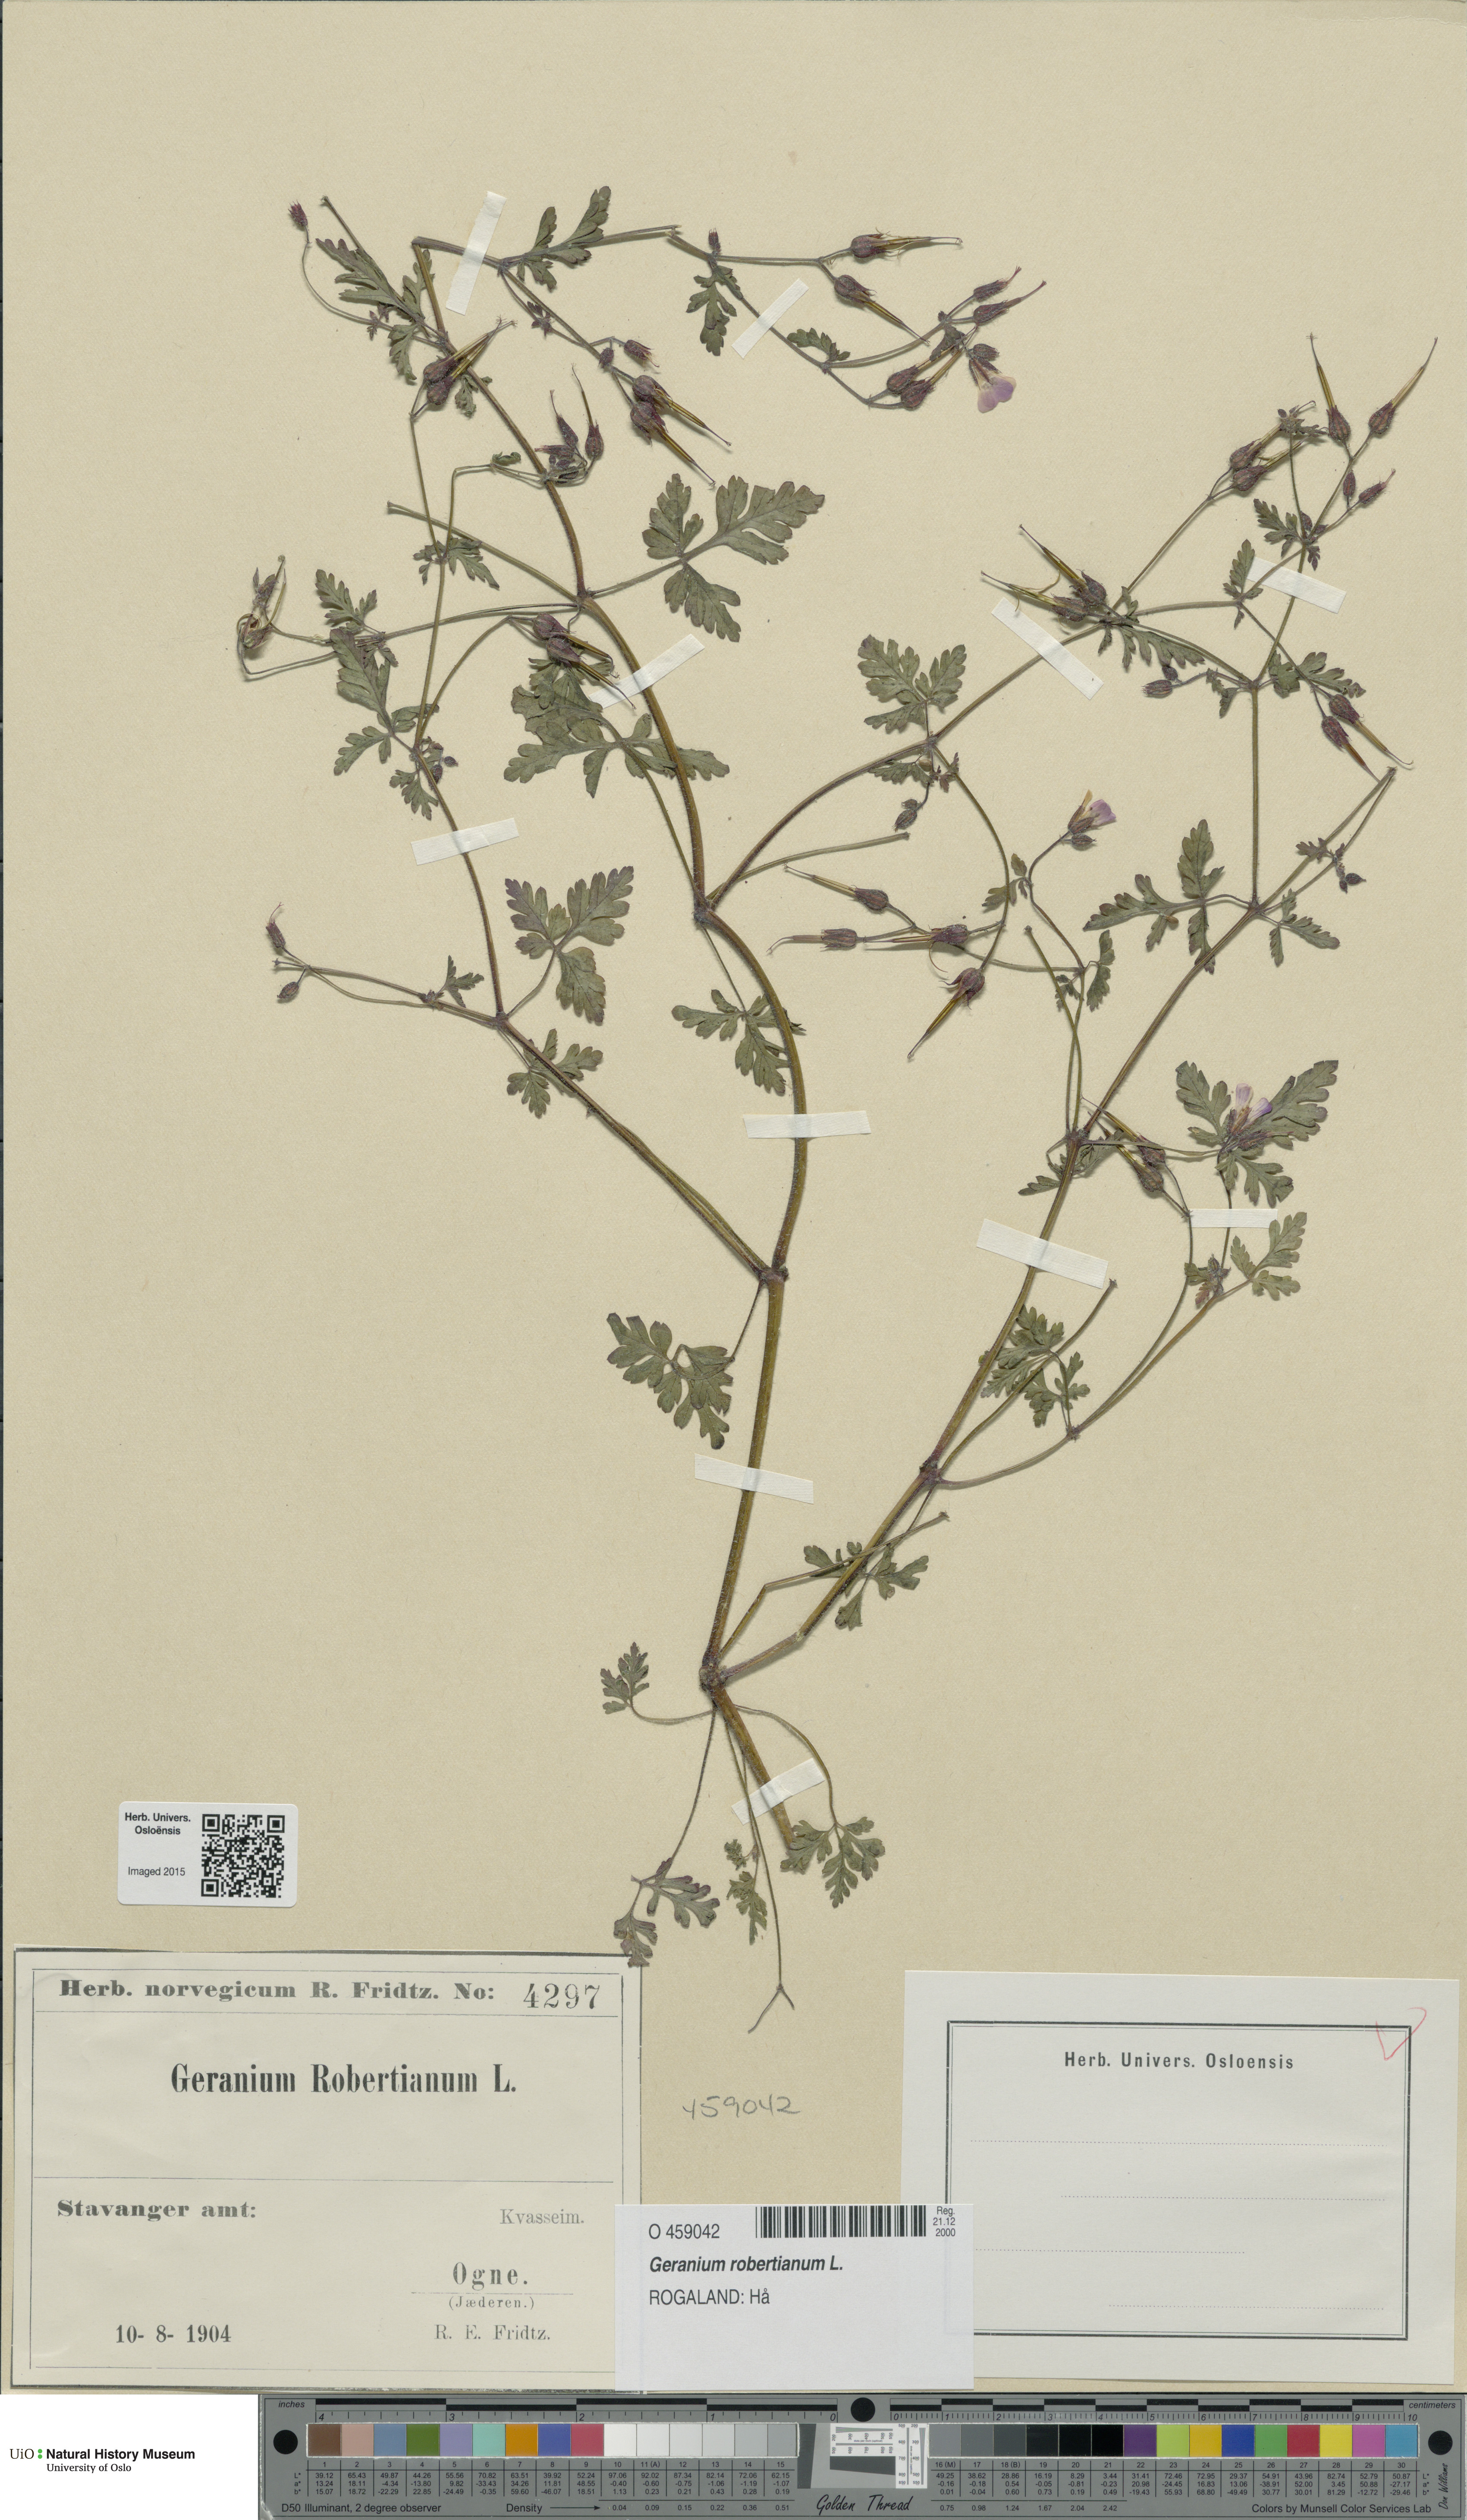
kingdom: Plantae
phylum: Tracheophyta
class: Magnoliopsida
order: Geraniales
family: Geraniaceae
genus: Geranium
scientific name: Geranium robertianum
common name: Herb-robert
